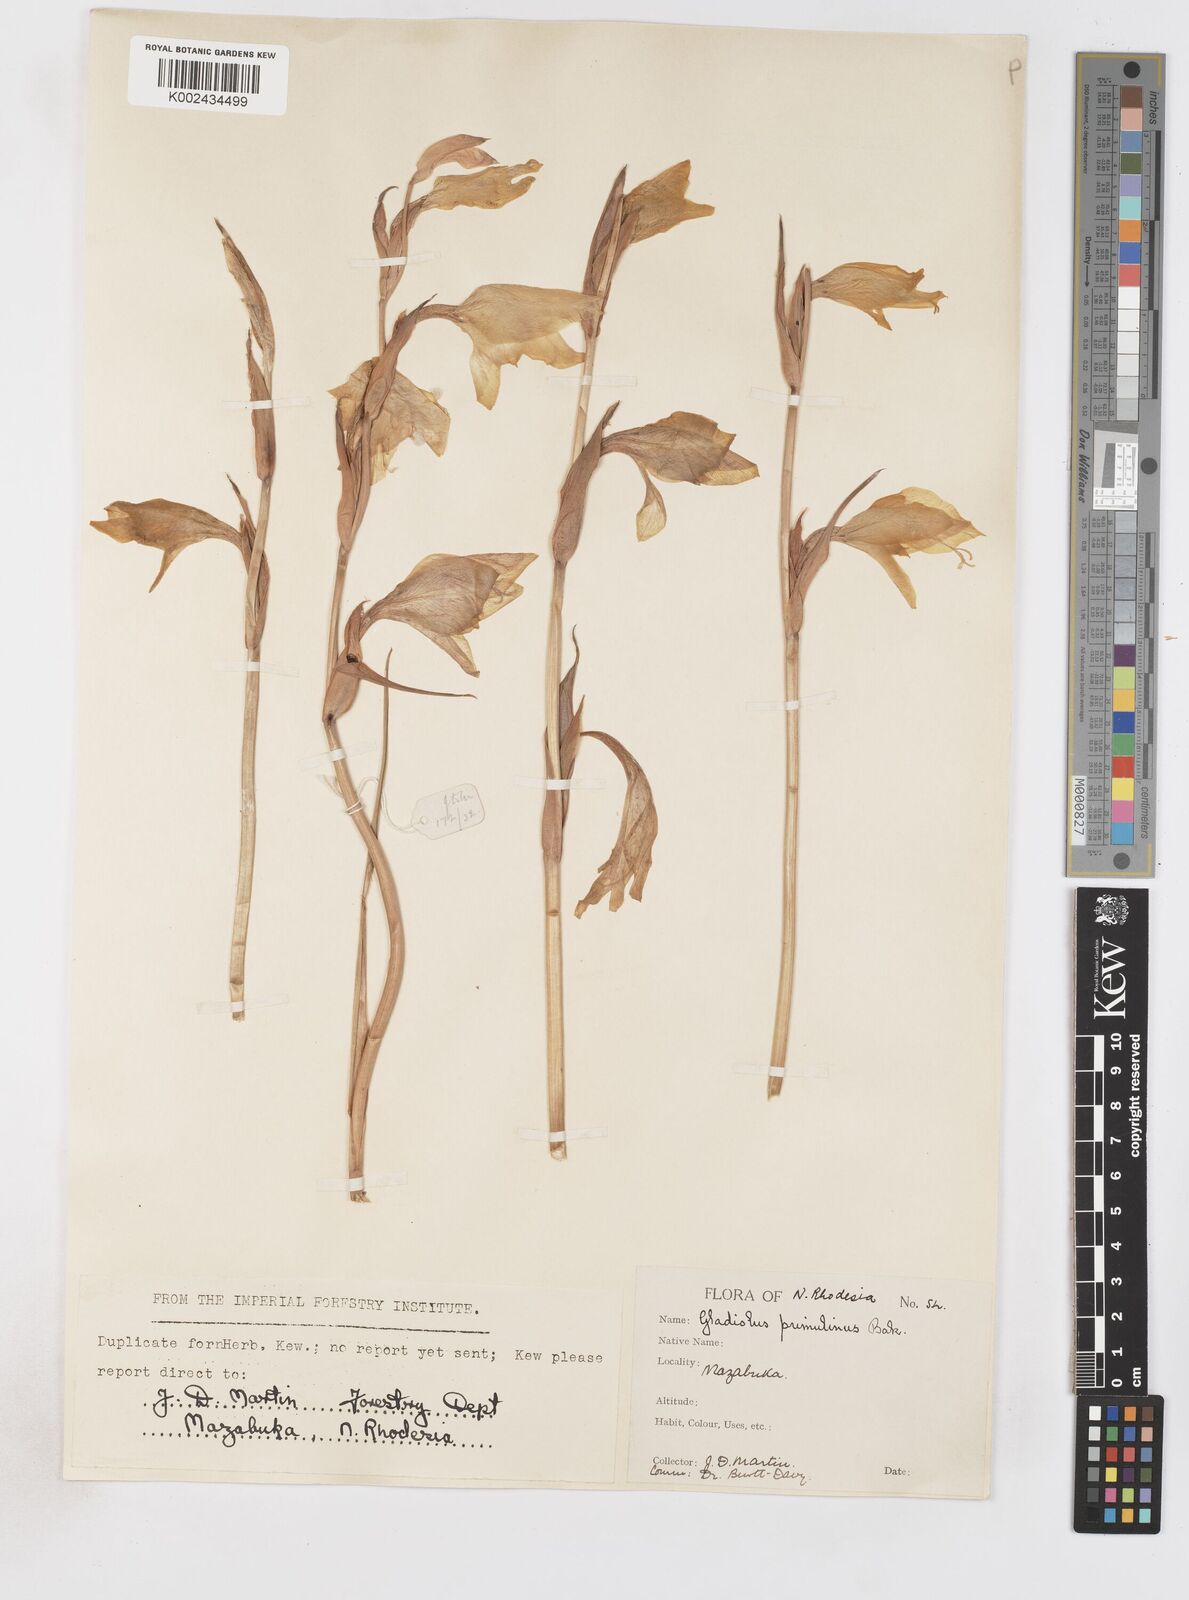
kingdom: Plantae
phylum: Tracheophyta
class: Liliopsida
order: Asparagales
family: Iridaceae
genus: Gladiolus
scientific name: Gladiolus dalenii
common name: Cornflag
